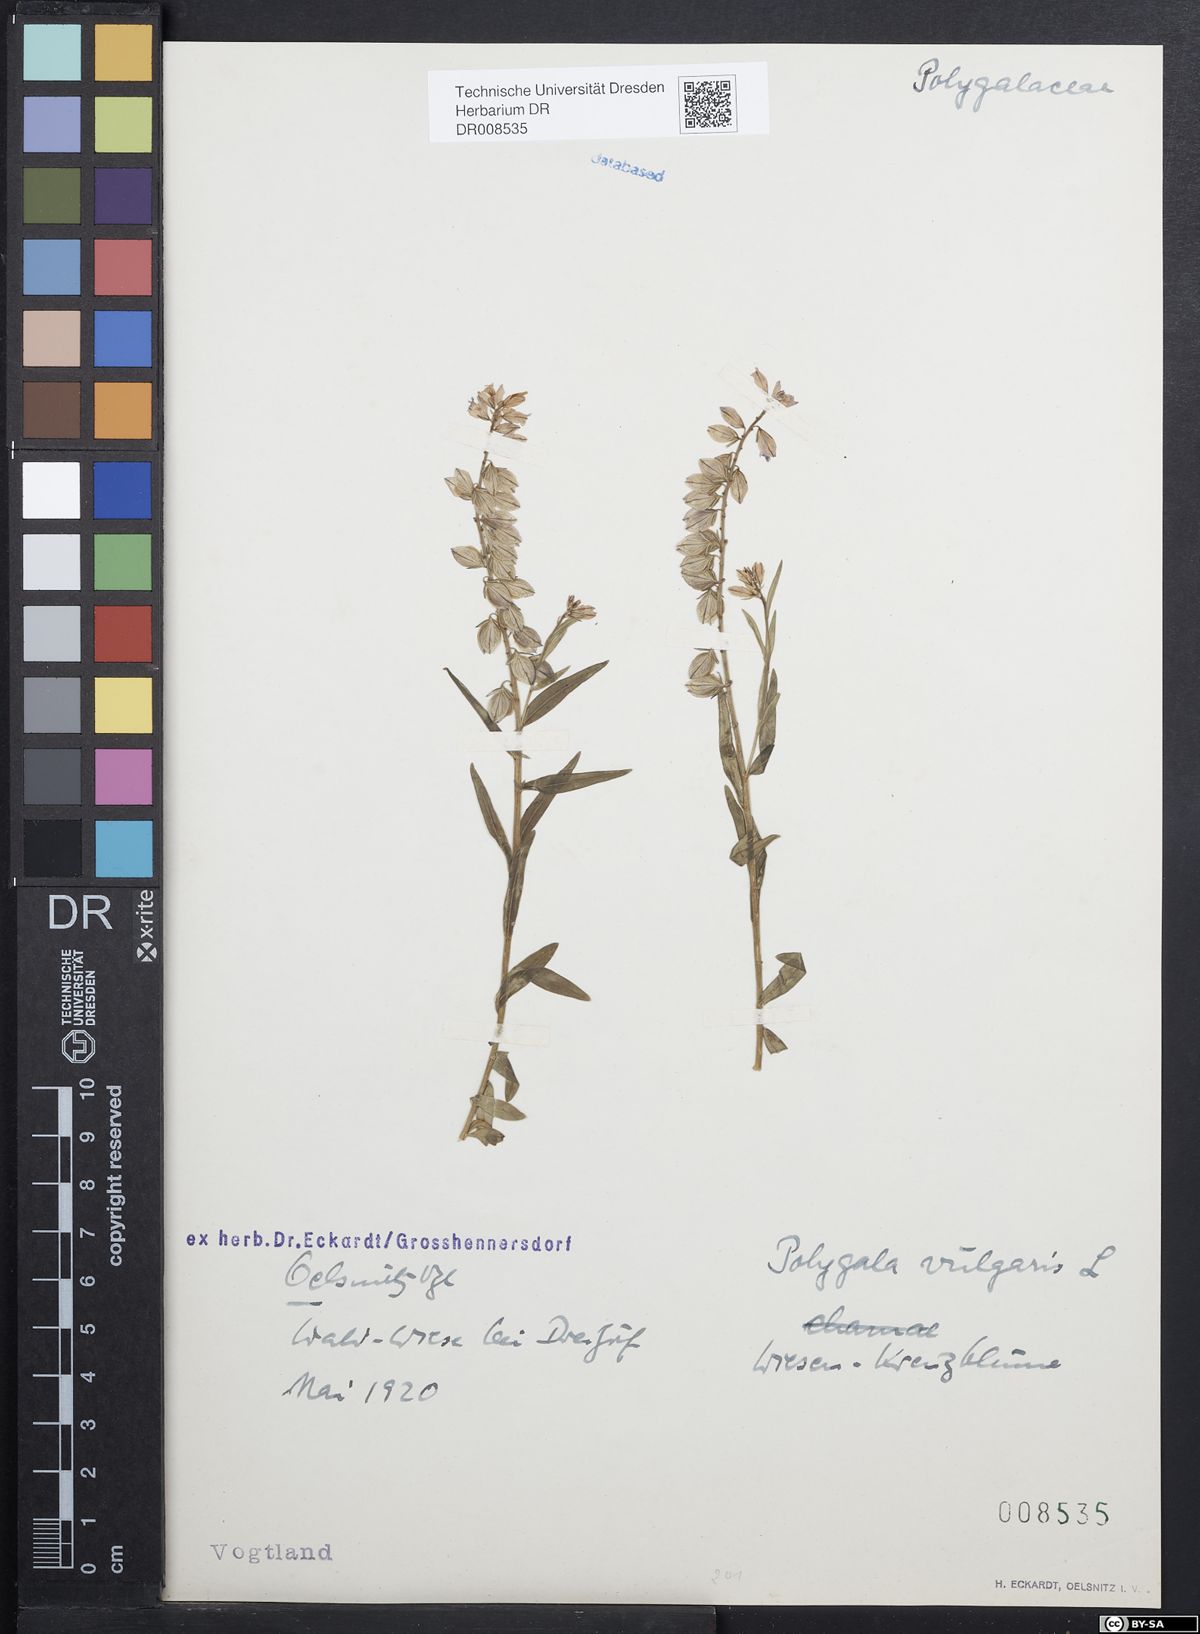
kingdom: Plantae
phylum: Tracheophyta
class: Magnoliopsida
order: Fabales
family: Polygalaceae
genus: Polygala
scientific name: Polygala vulgaris
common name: Common milkwort
